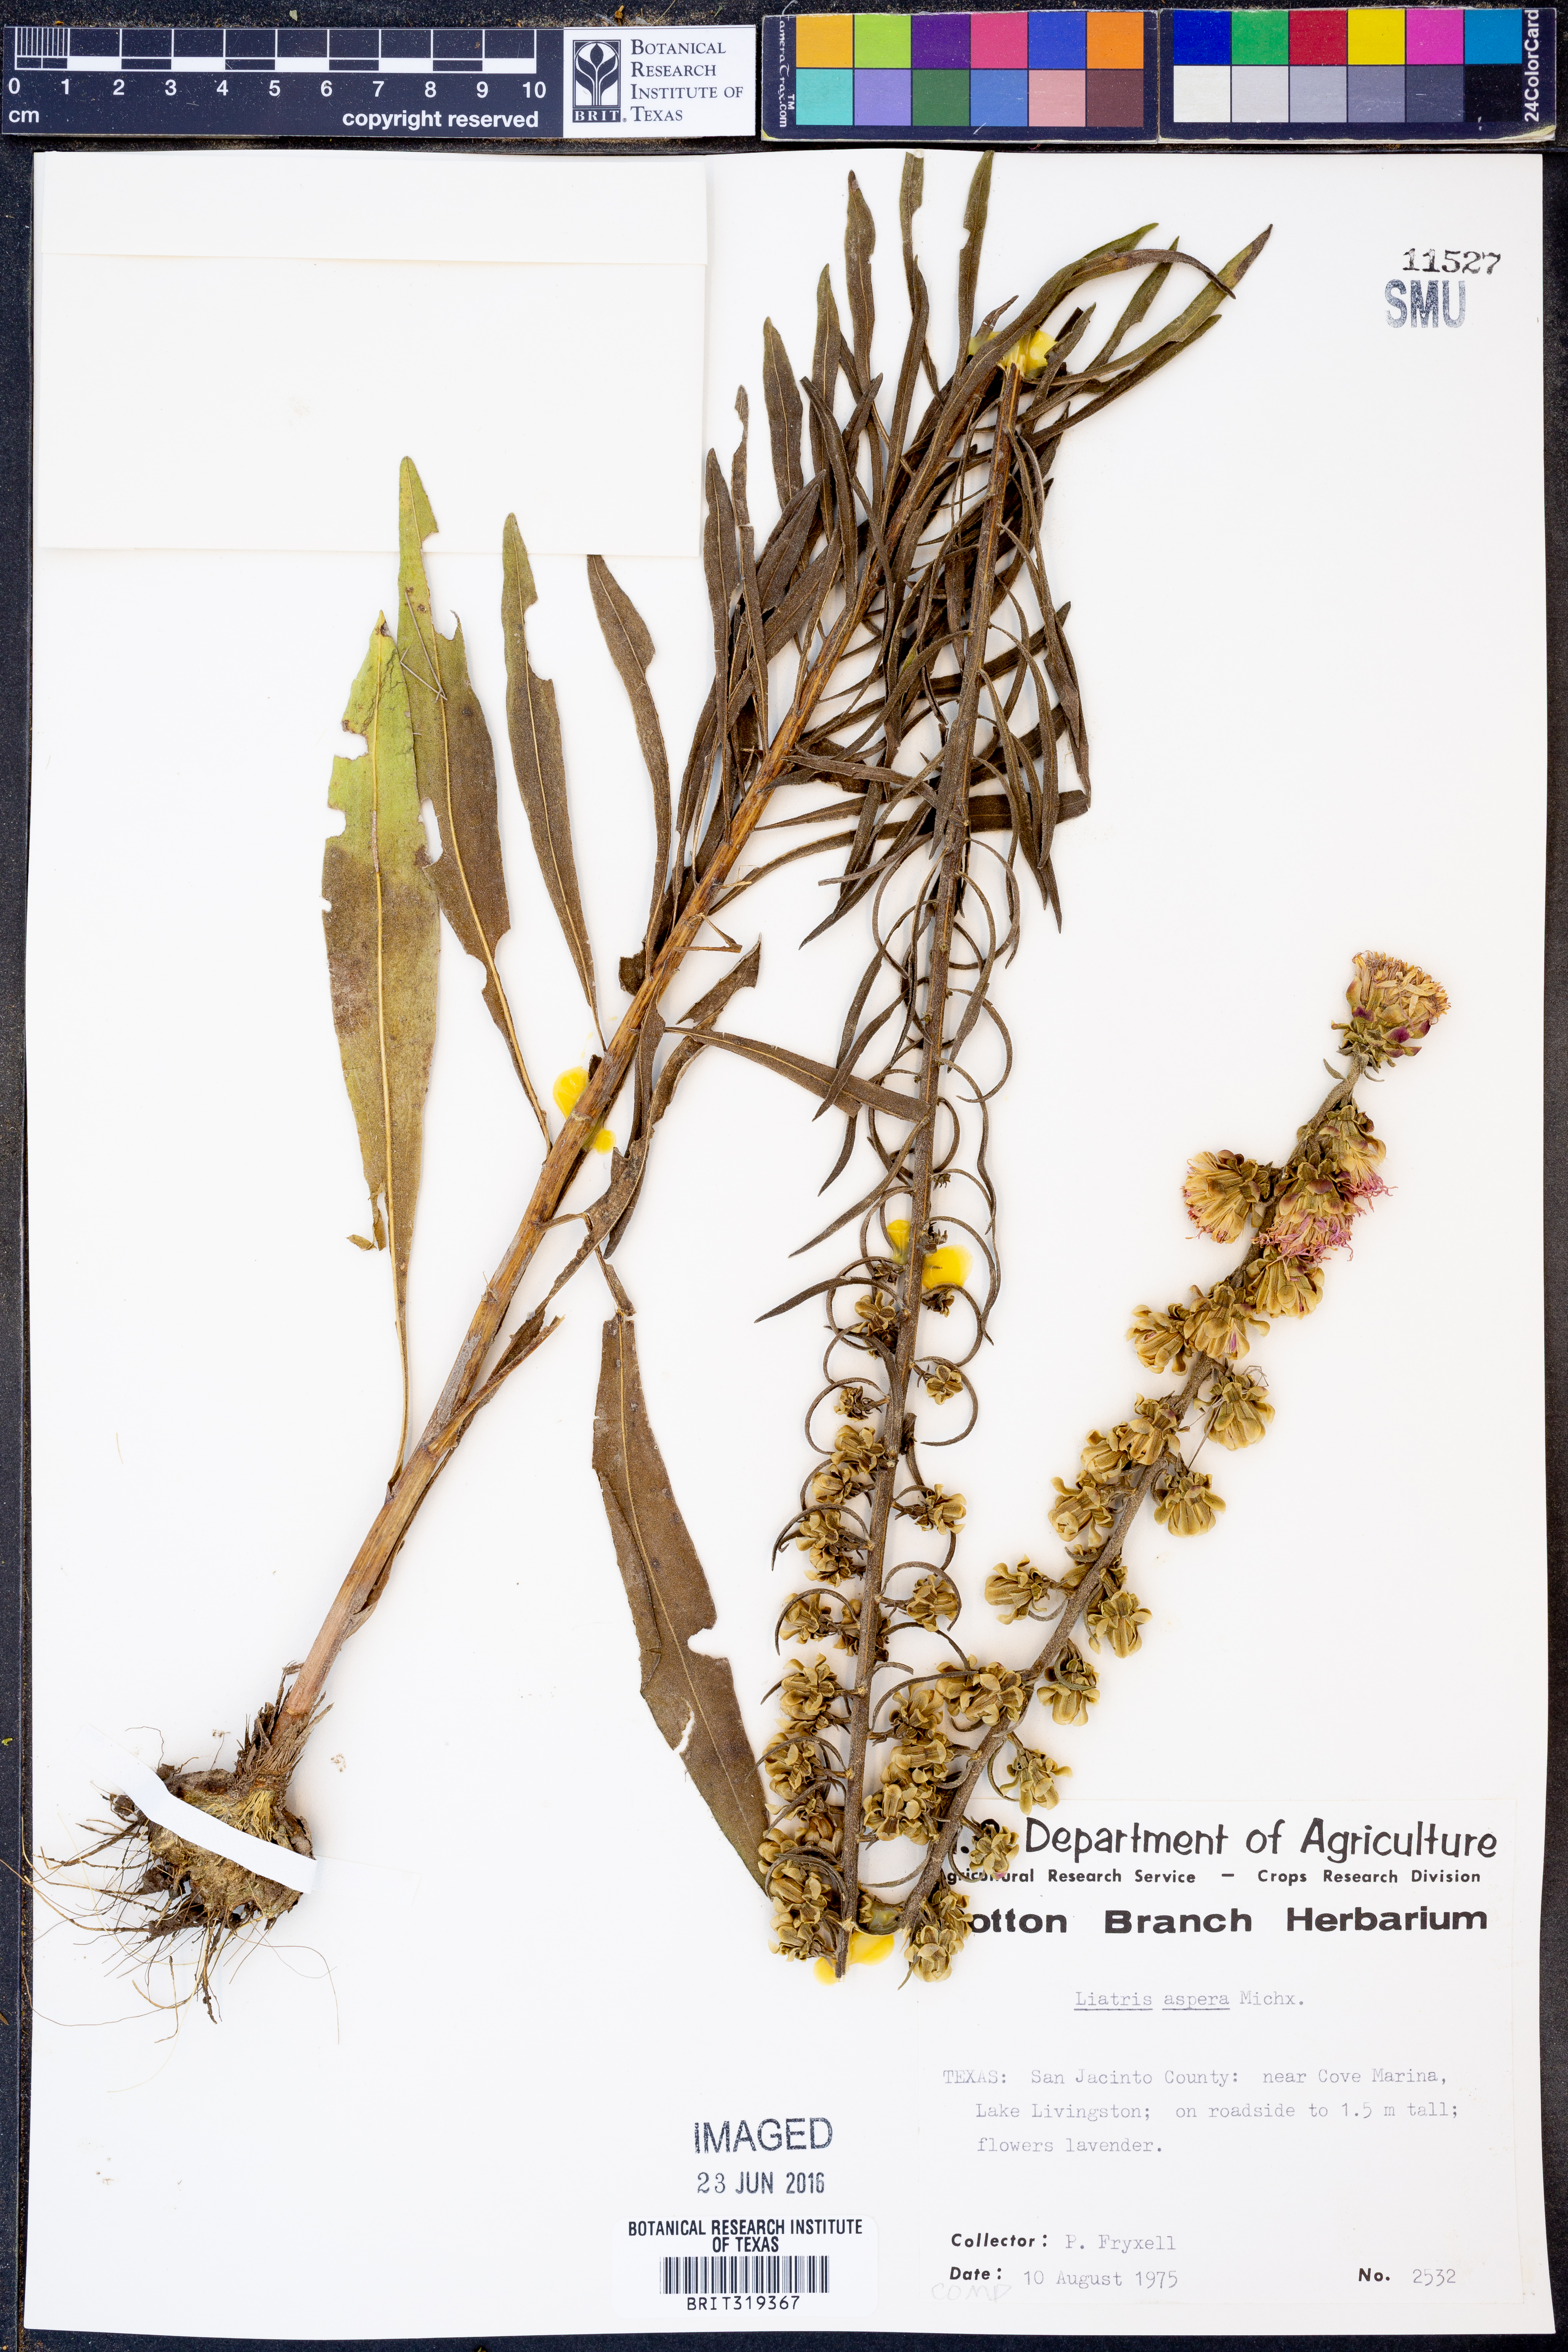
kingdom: Plantae
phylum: Tracheophyta
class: Magnoliopsida
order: Asterales
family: Asteraceae
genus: Liatris
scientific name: Liatris aspera
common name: Lacerate blazing-star
